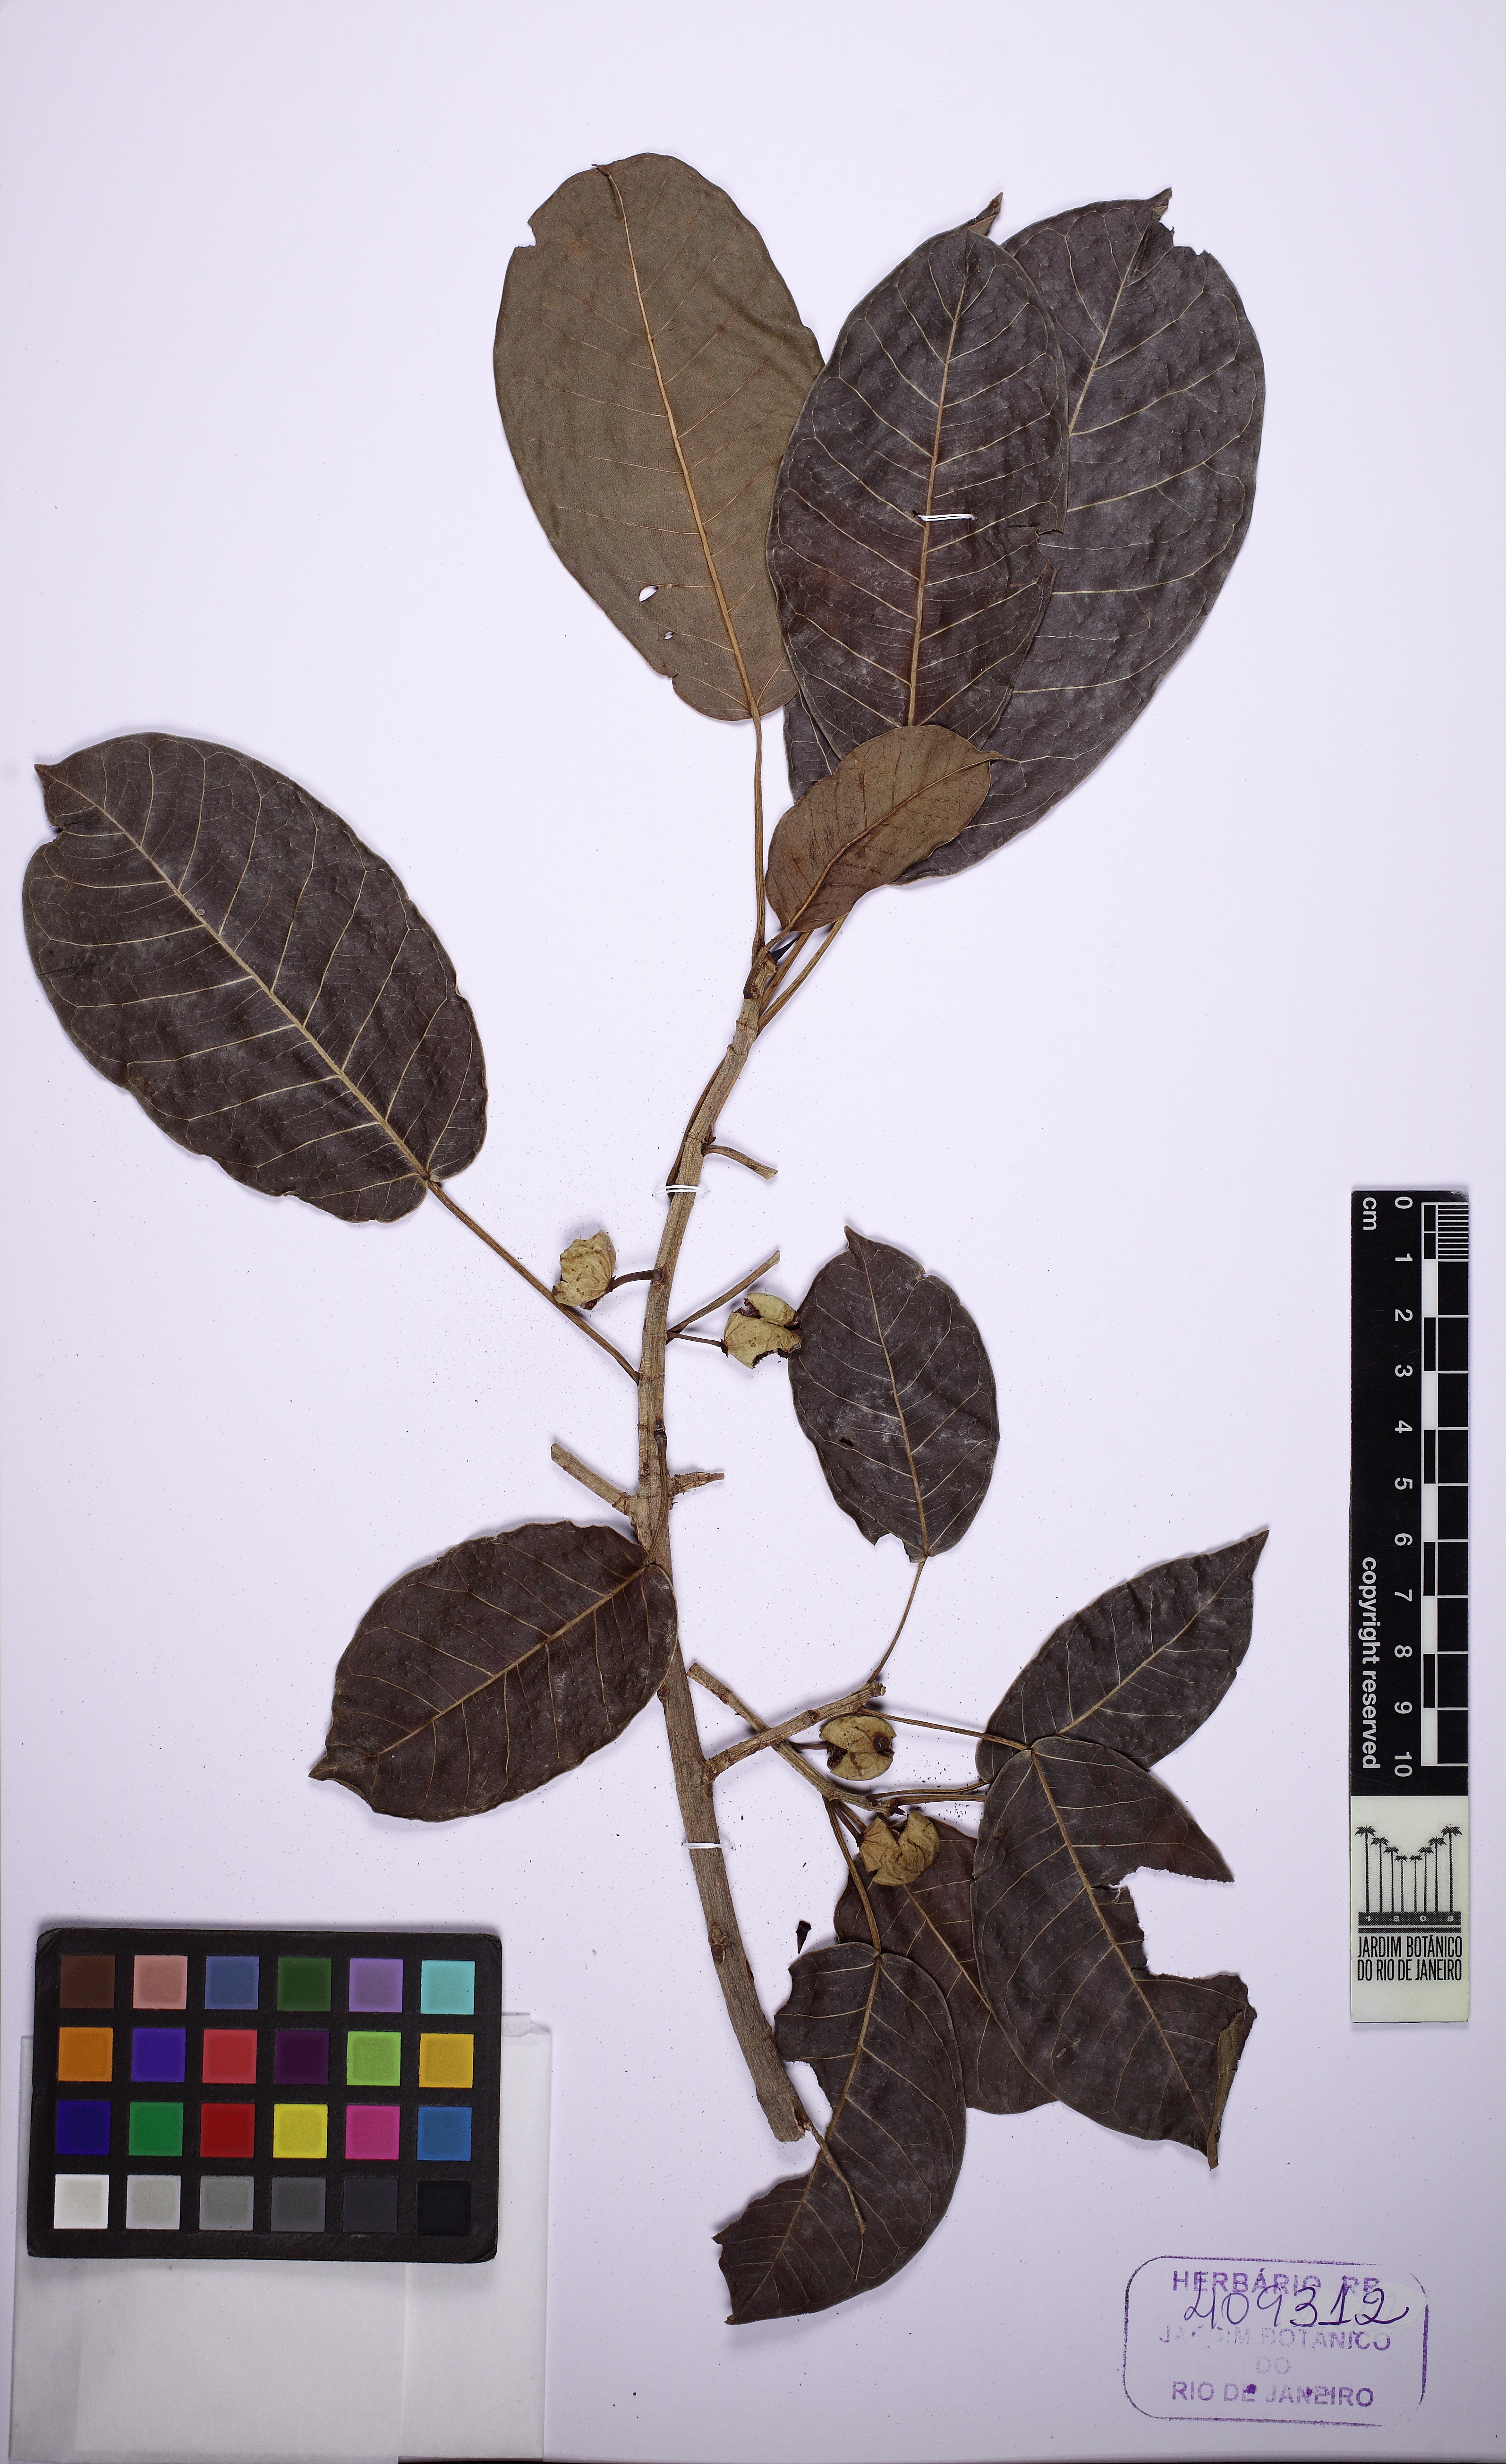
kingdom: Plantae
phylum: Tracheophyta
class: Magnoliopsida
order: Rosales
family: Moraceae
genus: Ficus
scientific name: Ficus guaranitica
